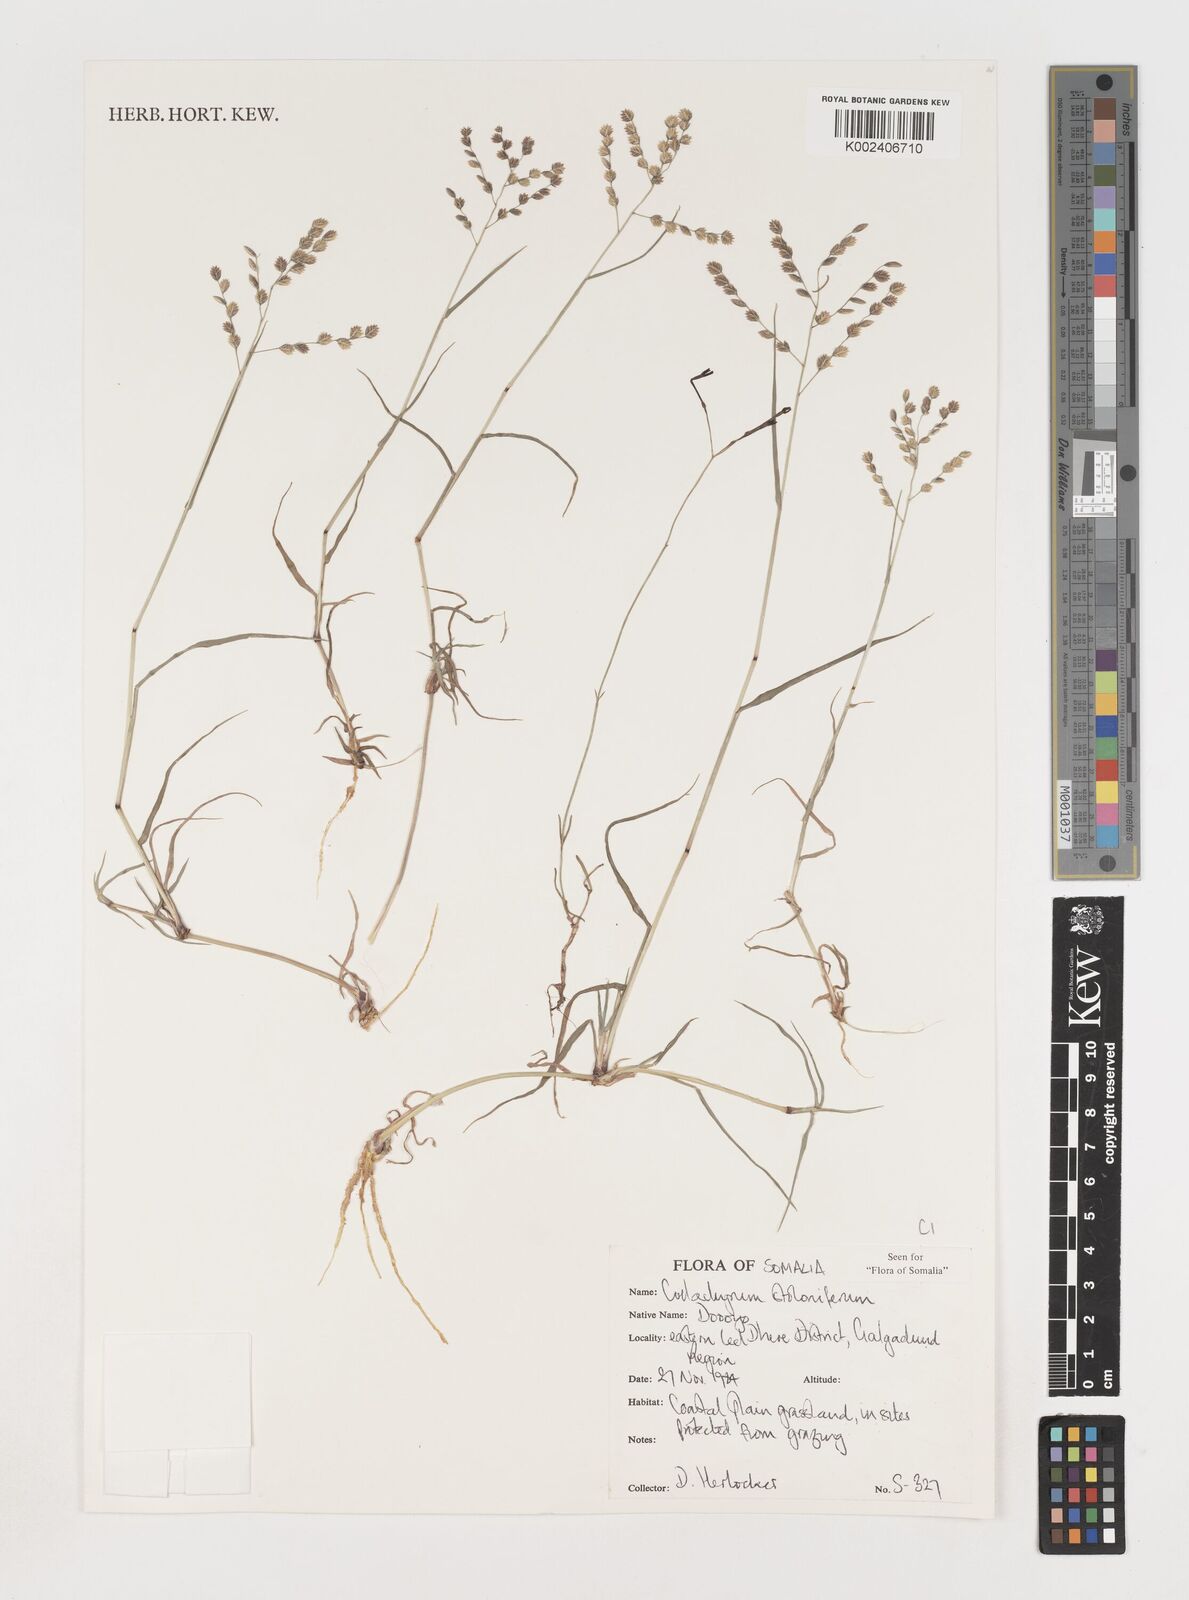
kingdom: Plantae
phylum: Tracheophyta
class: Liliopsida
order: Poales
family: Poaceae
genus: Coelachyrum
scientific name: Coelachyrum piercei
